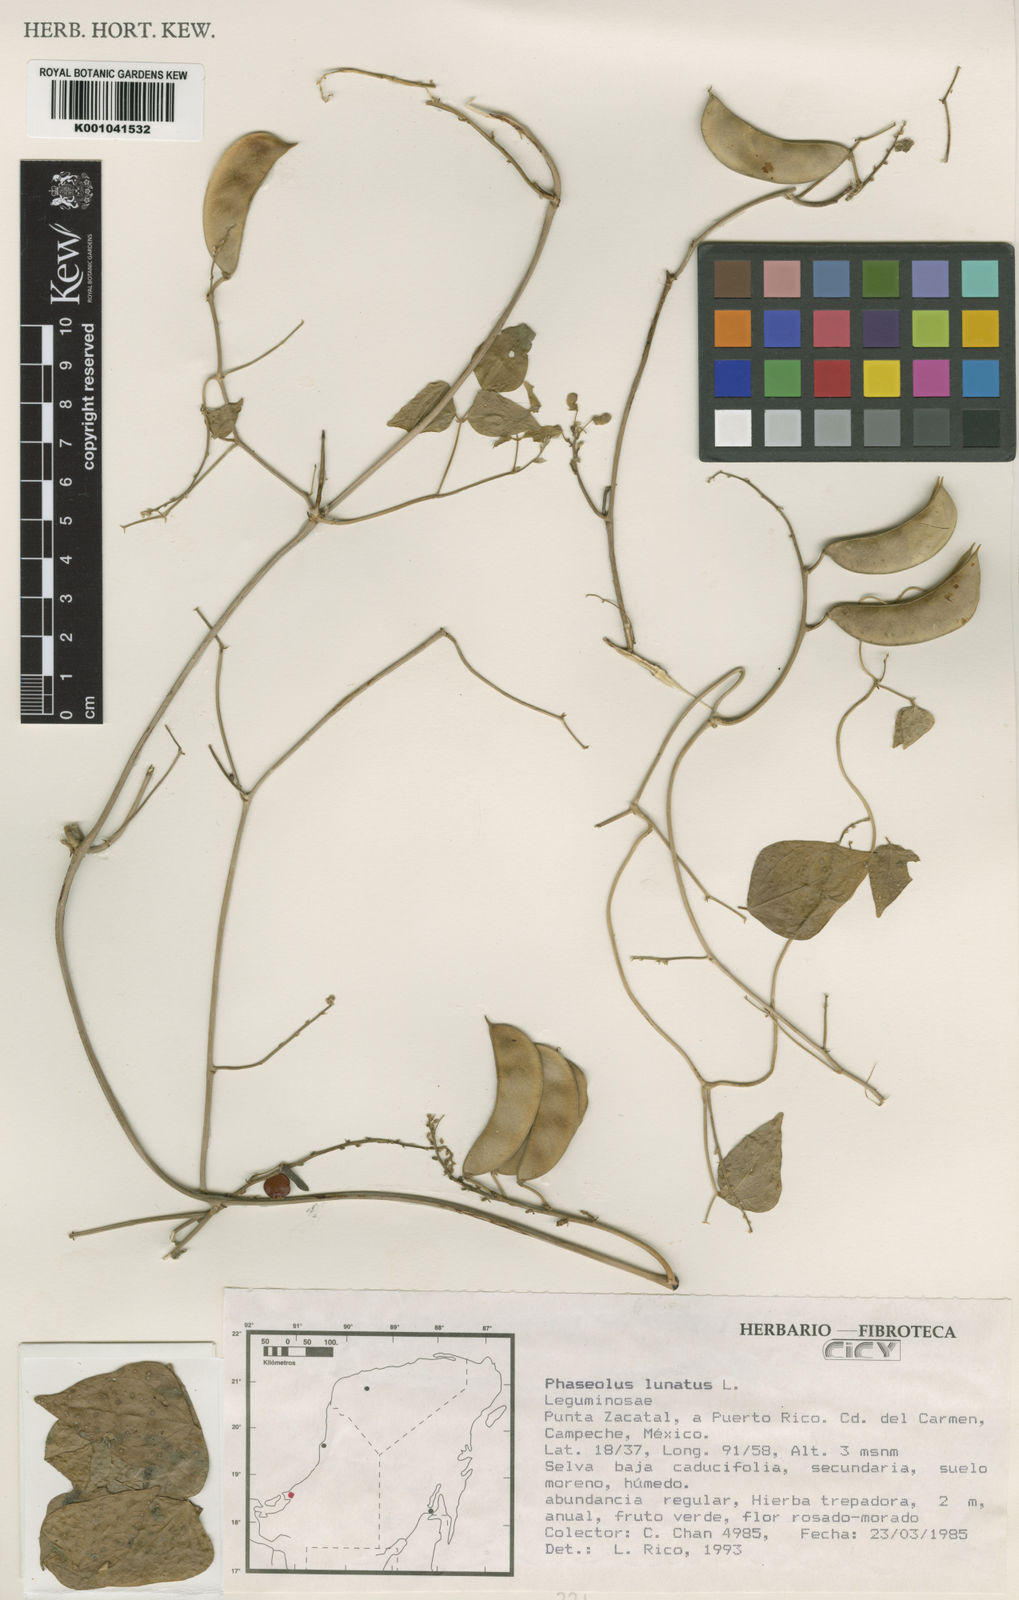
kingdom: Plantae
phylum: Tracheophyta
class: Magnoliopsida
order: Fabales
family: Fabaceae
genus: Phaseolus
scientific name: Phaseolus lunatus
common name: Sieva bean
